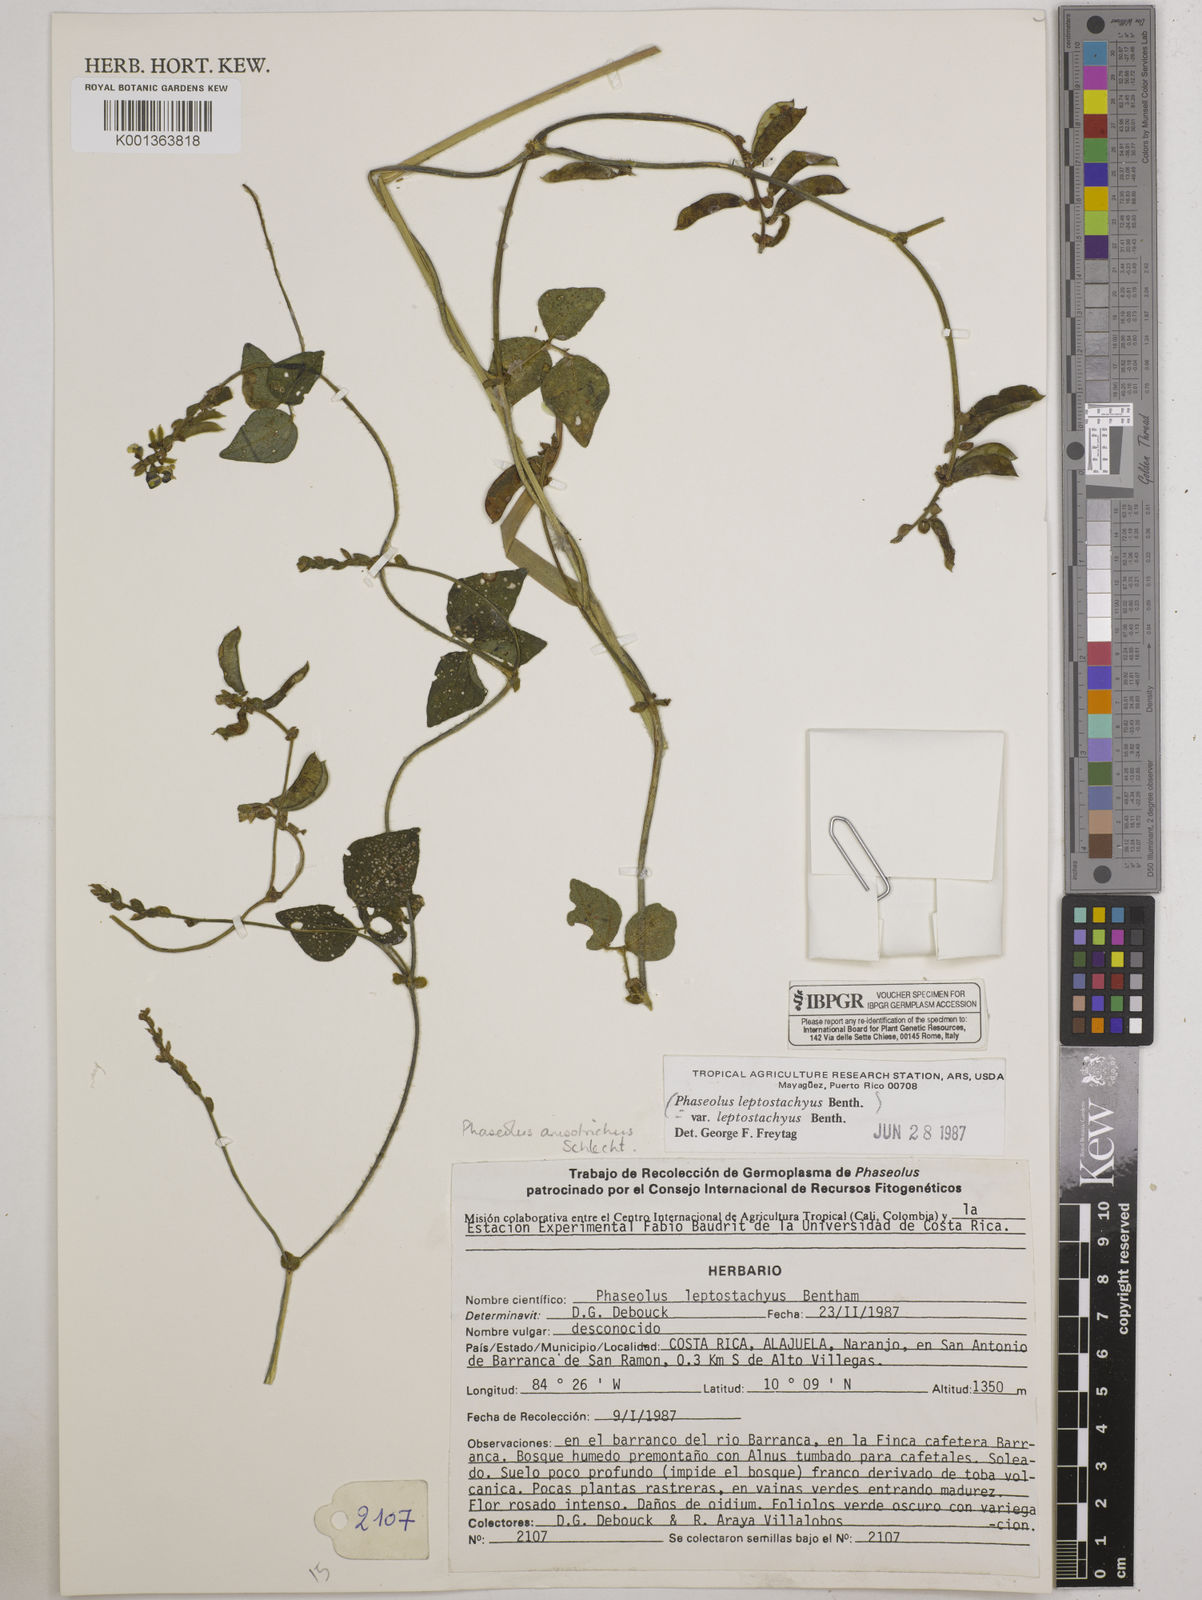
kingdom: Plantae
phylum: Tracheophyta
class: Magnoliopsida
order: Fabales
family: Fabaceae
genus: Phaseolus
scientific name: Phaseolus
